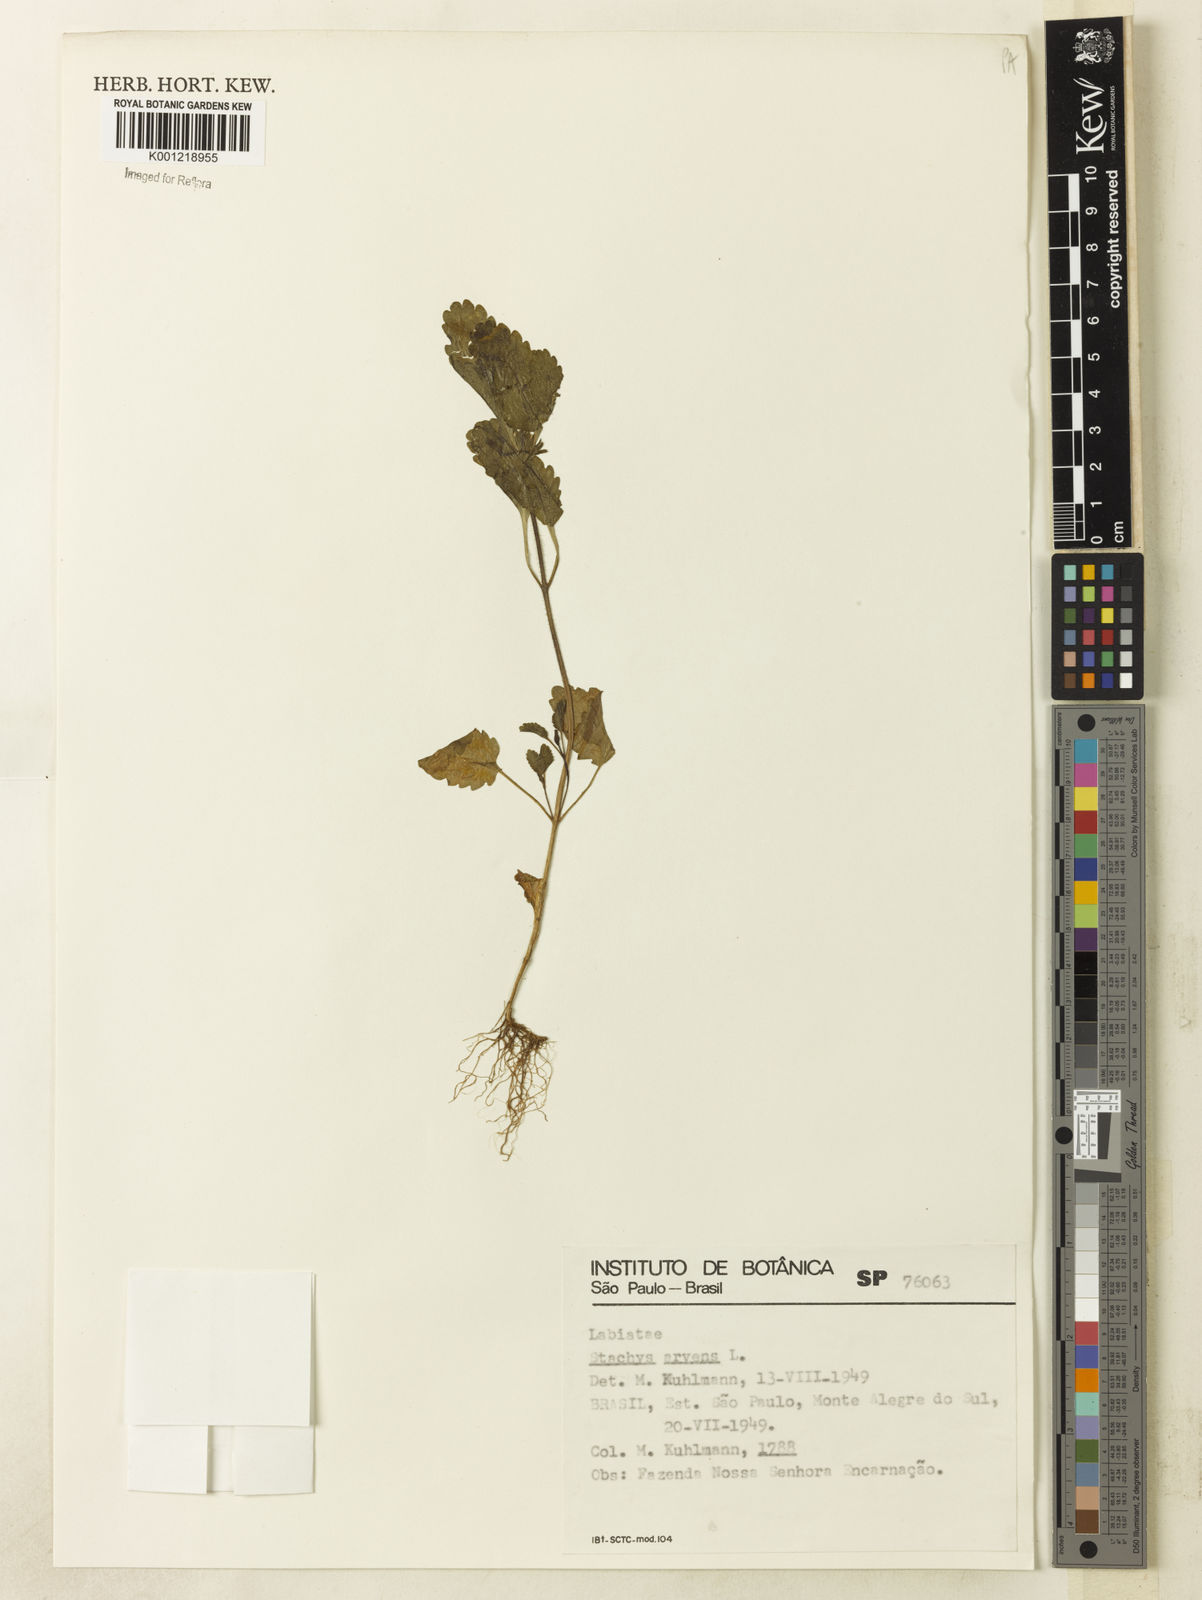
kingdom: Plantae
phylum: Tracheophyta
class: Magnoliopsida
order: Lamiales
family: Lamiaceae
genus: Stachys
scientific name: Stachys arvensis
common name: Field woundwort
